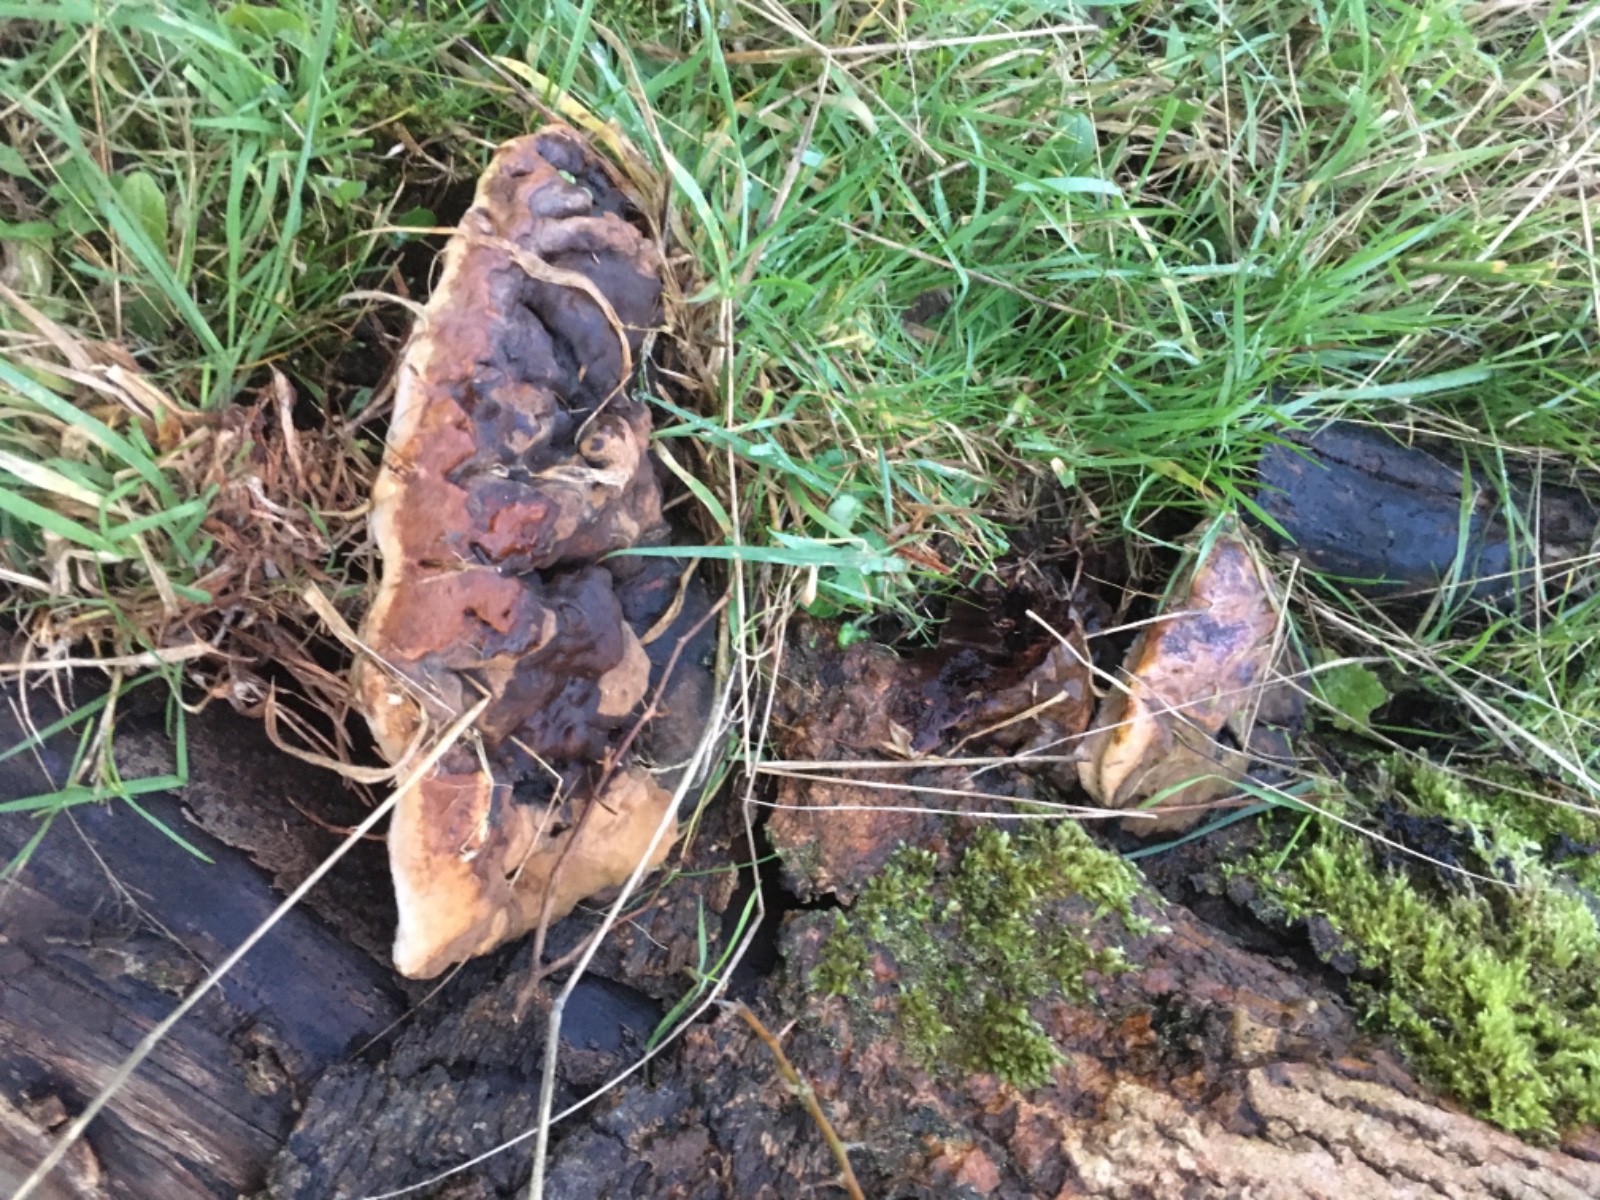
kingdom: Fungi
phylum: Basidiomycota
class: Agaricomycetes
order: Polyporales
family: Polyporaceae
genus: Ganoderma
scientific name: Ganoderma adspersum
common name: grov lakporesvamp
